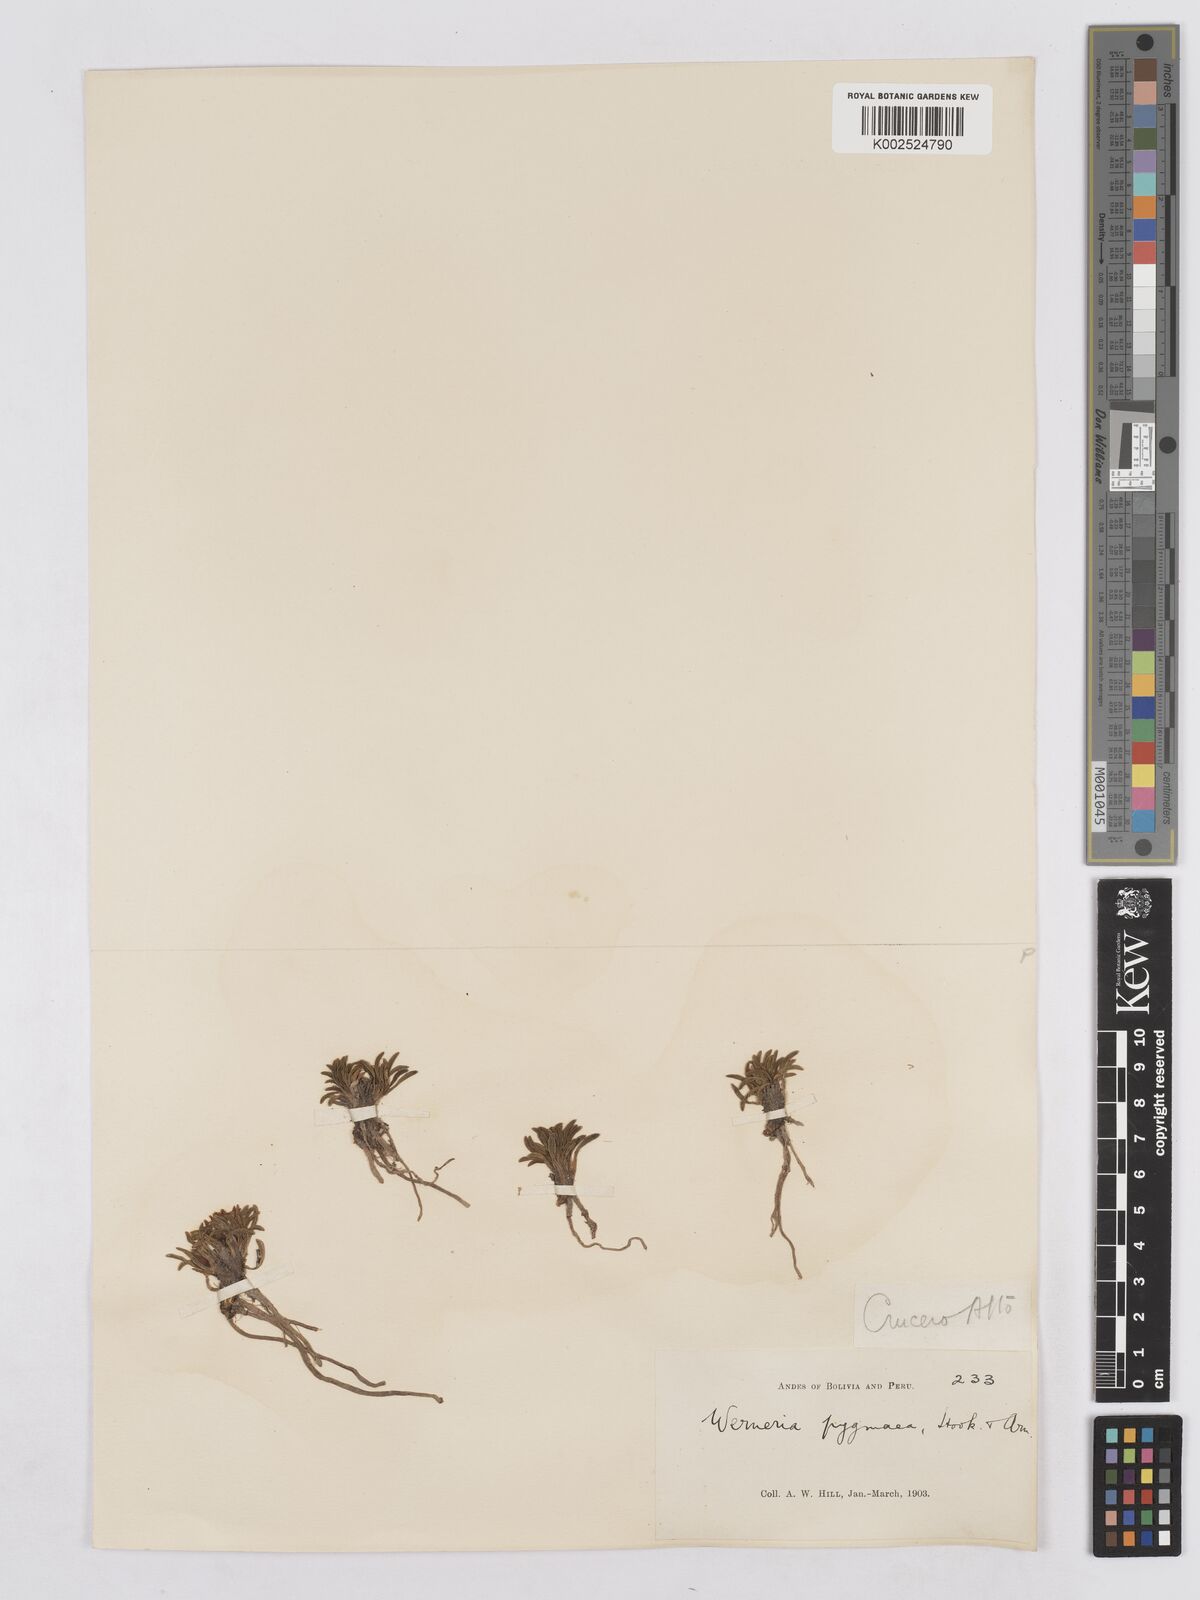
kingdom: Plantae
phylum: Tracheophyta
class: Magnoliopsida
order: Asterales
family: Asteraceae
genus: Rockhausenia
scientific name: Rockhausenia pygmaea
